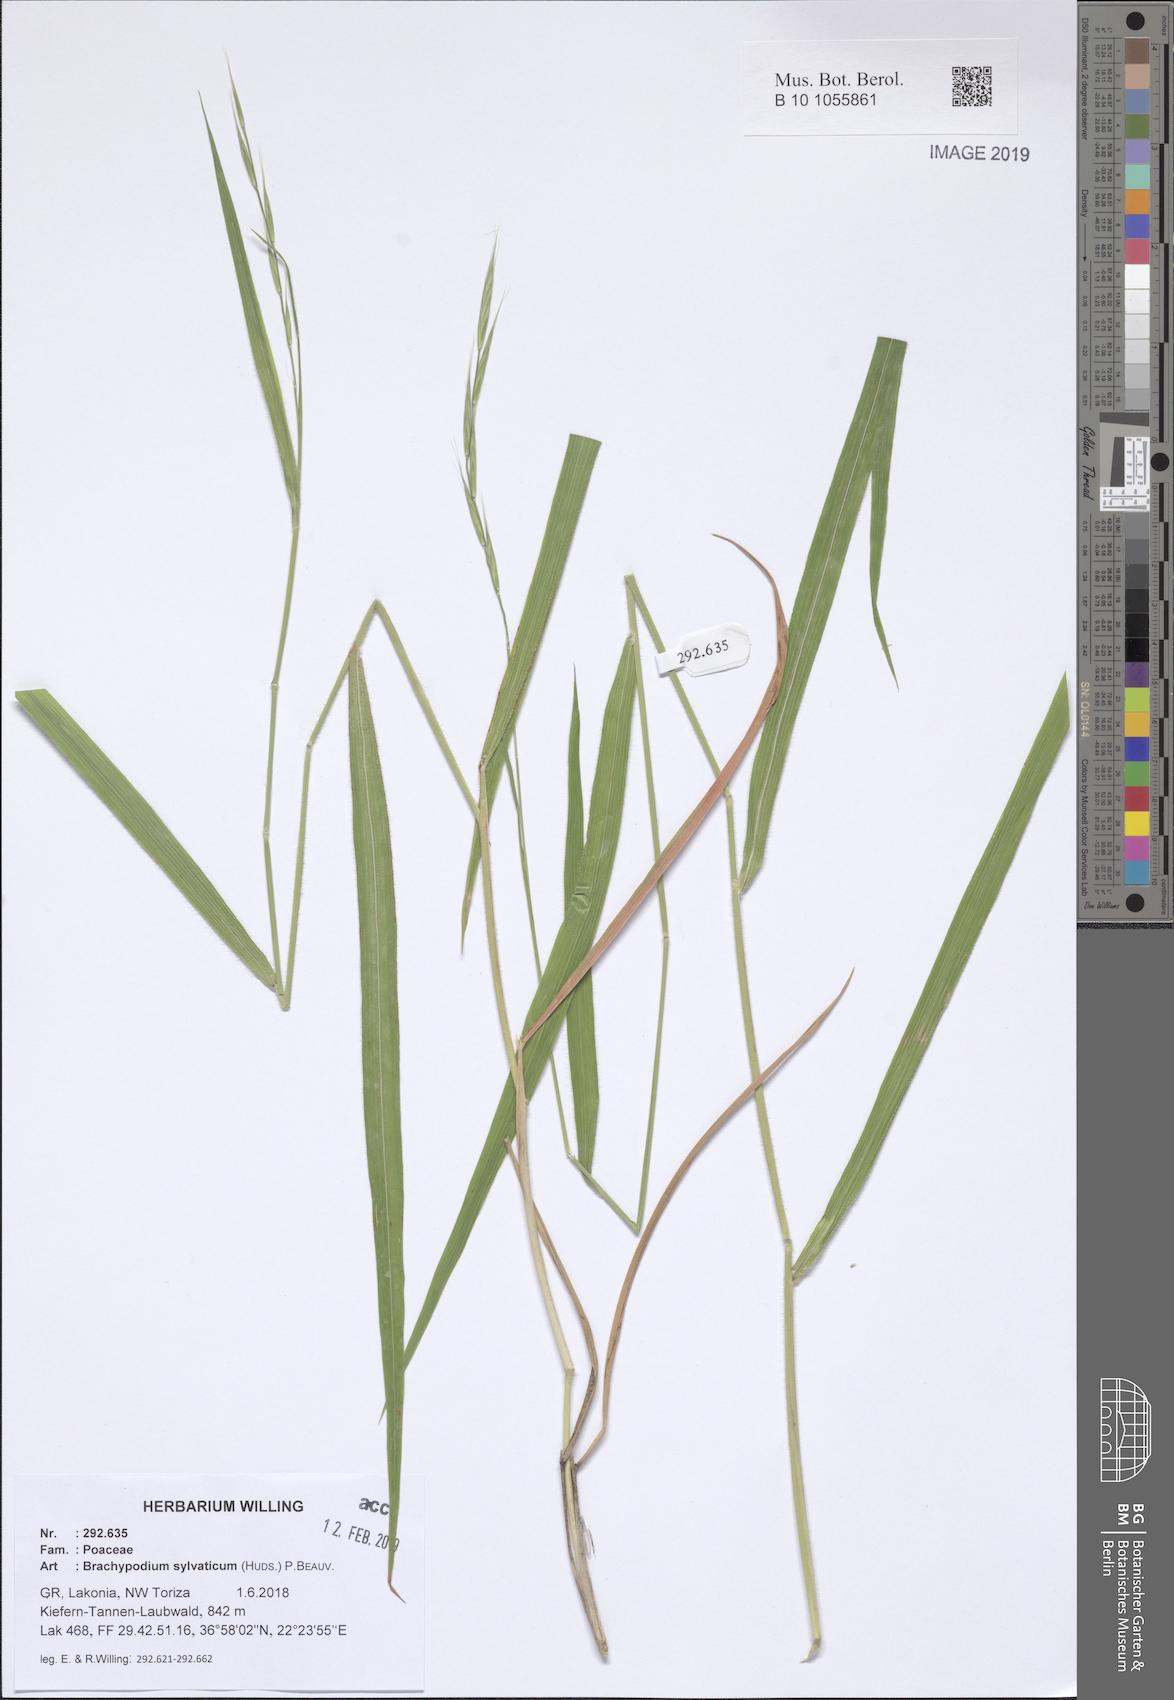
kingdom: Plantae
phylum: Tracheophyta
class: Liliopsida
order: Poales
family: Poaceae
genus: Brachypodium
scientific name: Brachypodium sylvaticum
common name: False-brome
